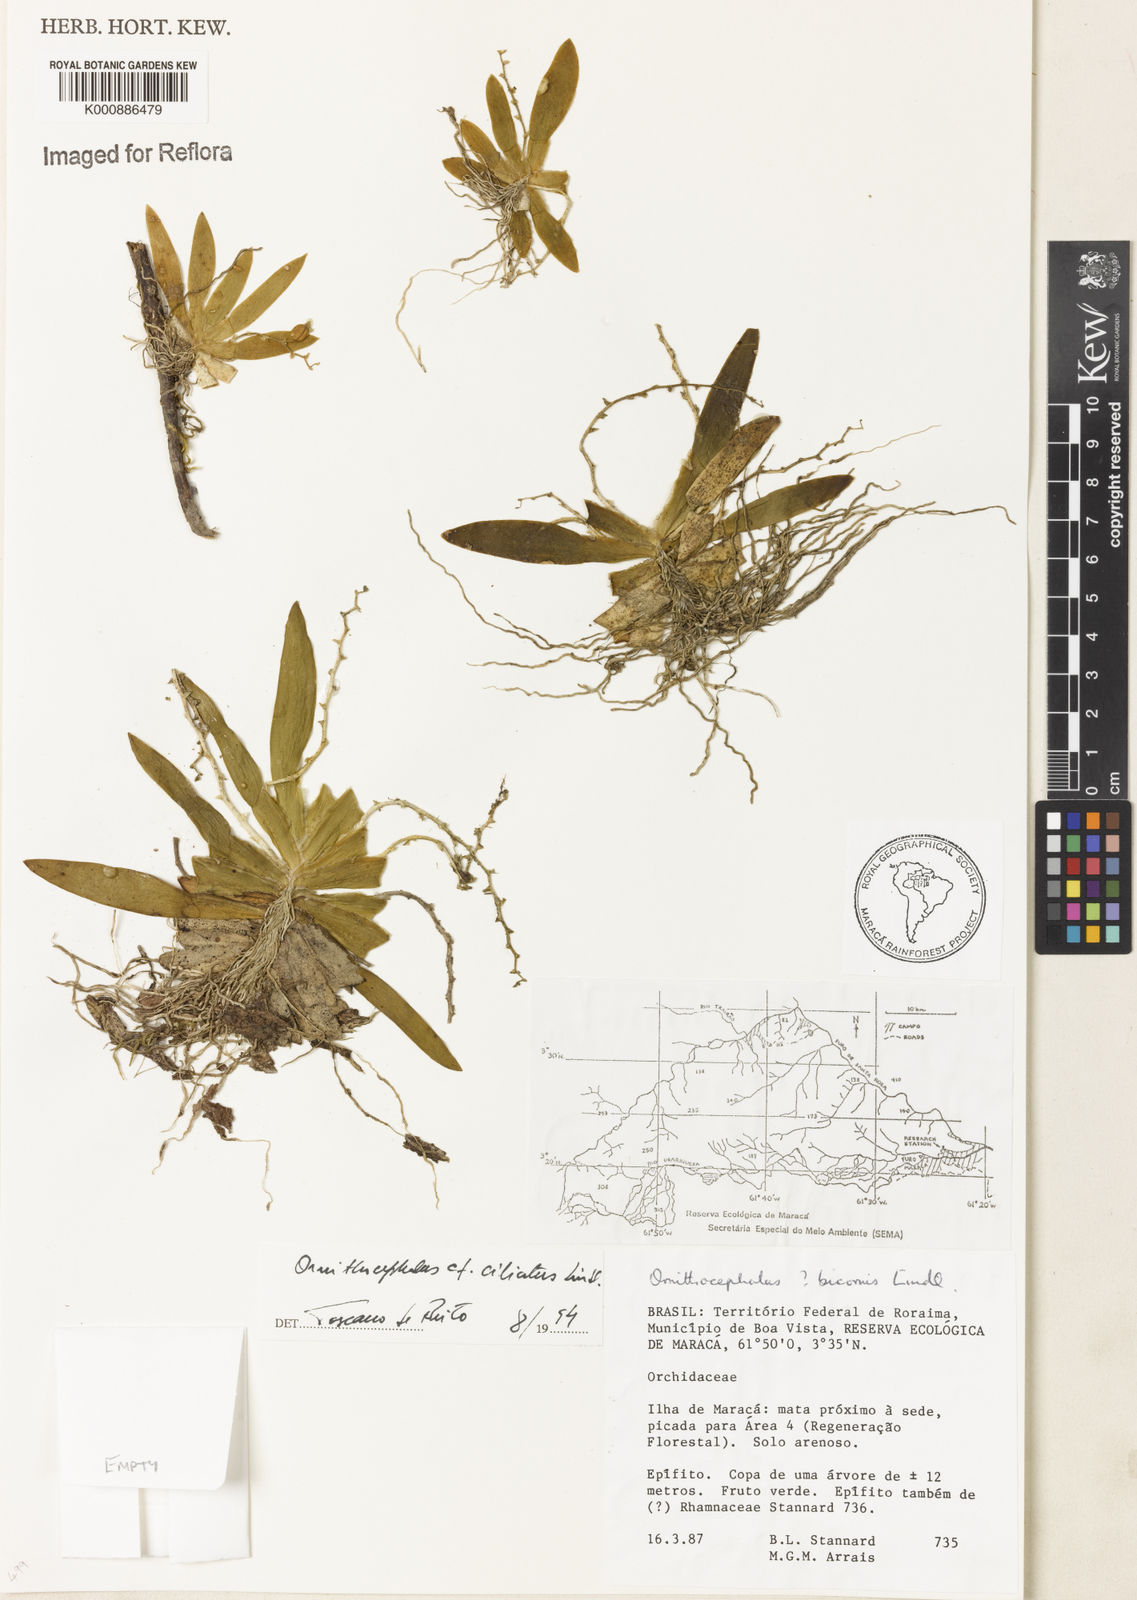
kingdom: Plantae
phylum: Tracheophyta
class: Liliopsida
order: Asparagales
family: Orchidaceae
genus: Ornithocephalus
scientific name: Ornithocephalus ciliatus
